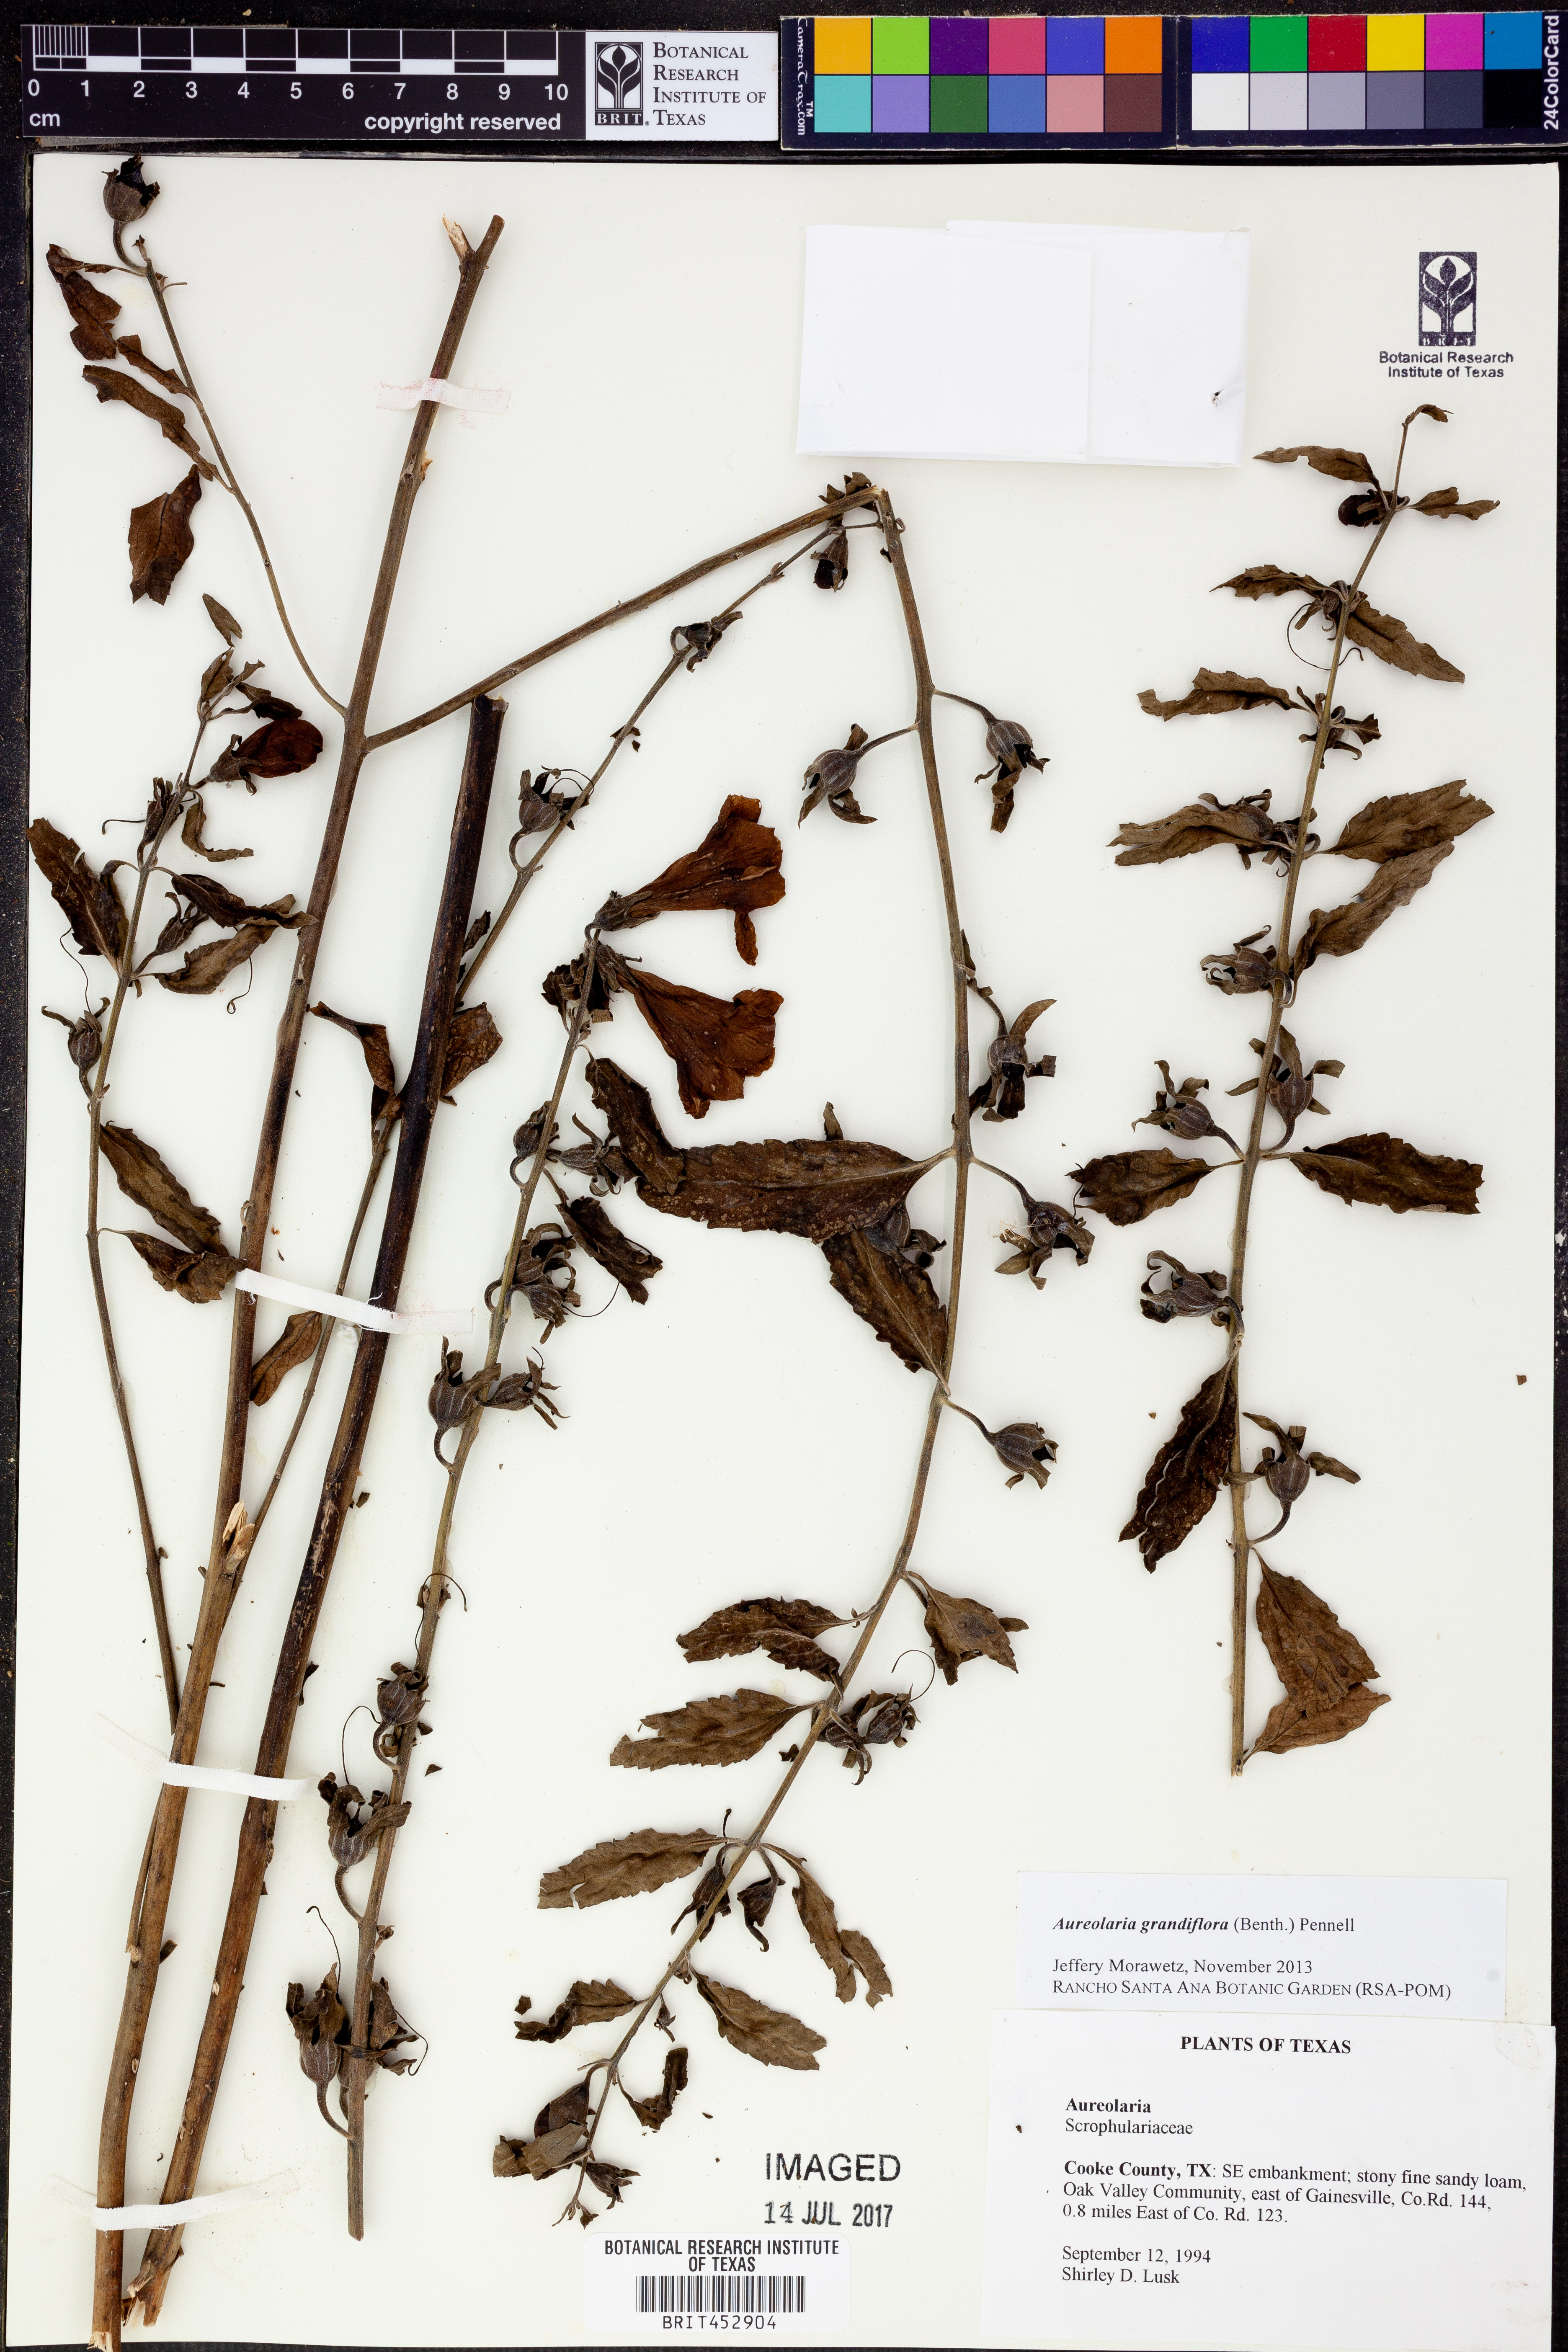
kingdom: Plantae
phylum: Tracheophyta
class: Magnoliopsida
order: Lamiales
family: Orobanchaceae
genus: Aureolaria
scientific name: Aureolaria grandiflora
